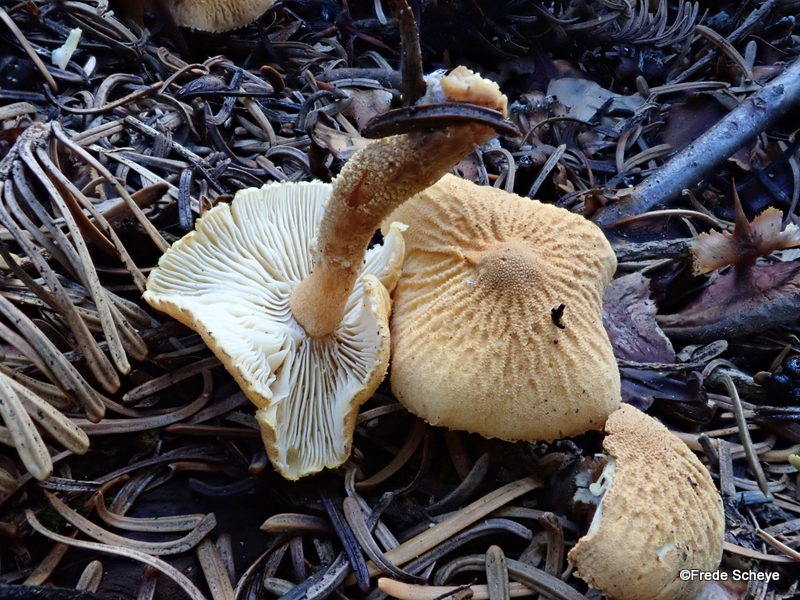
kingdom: Fungi
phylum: Basidiomycota
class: Agaricomycetes
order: Agaricales
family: Tricholomataceae
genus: Cystoderma
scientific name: Cystoderma amianthinum
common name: okkergul grynhat
